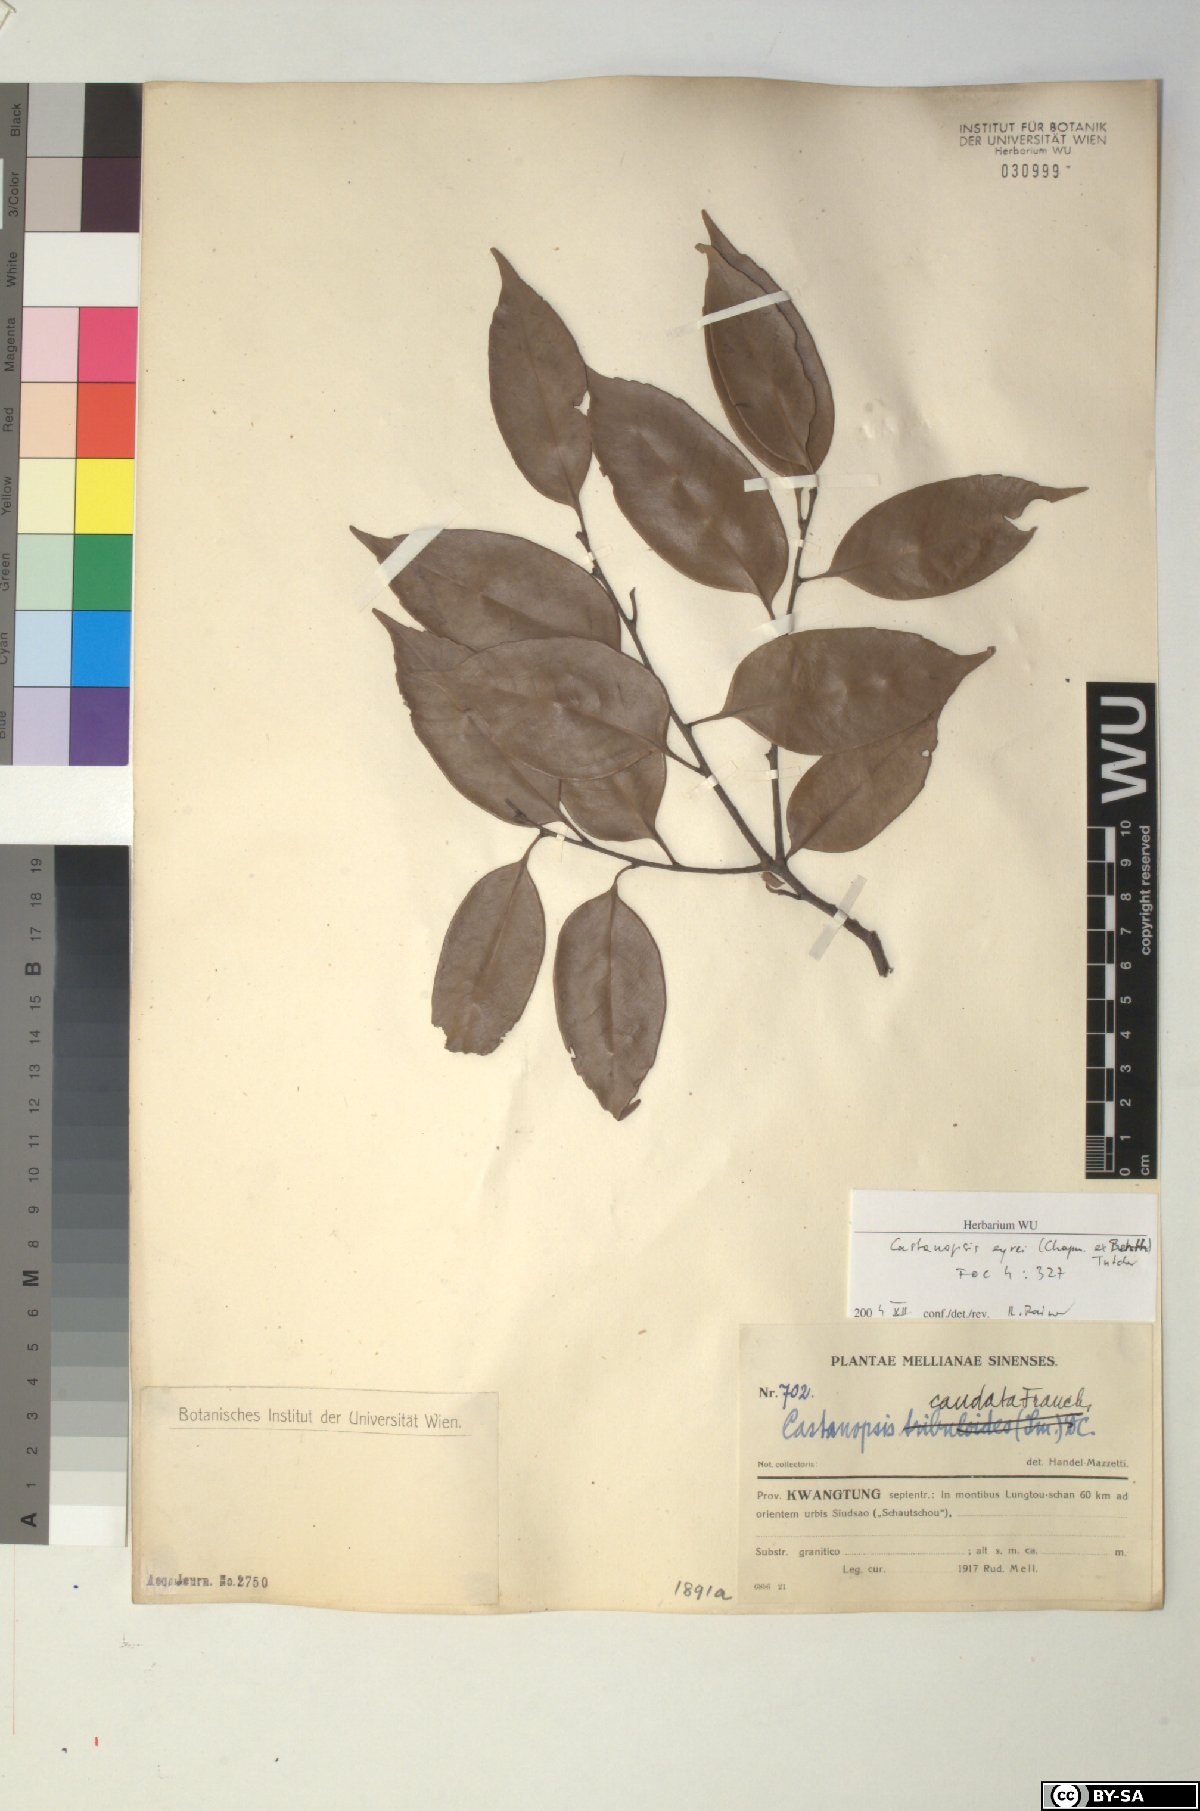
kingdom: Plantae
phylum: Tracheophyta
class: Magnoliopsida
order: Fagales
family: Fagaceae
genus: Castanopsis
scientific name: Castanopsis eyrei
